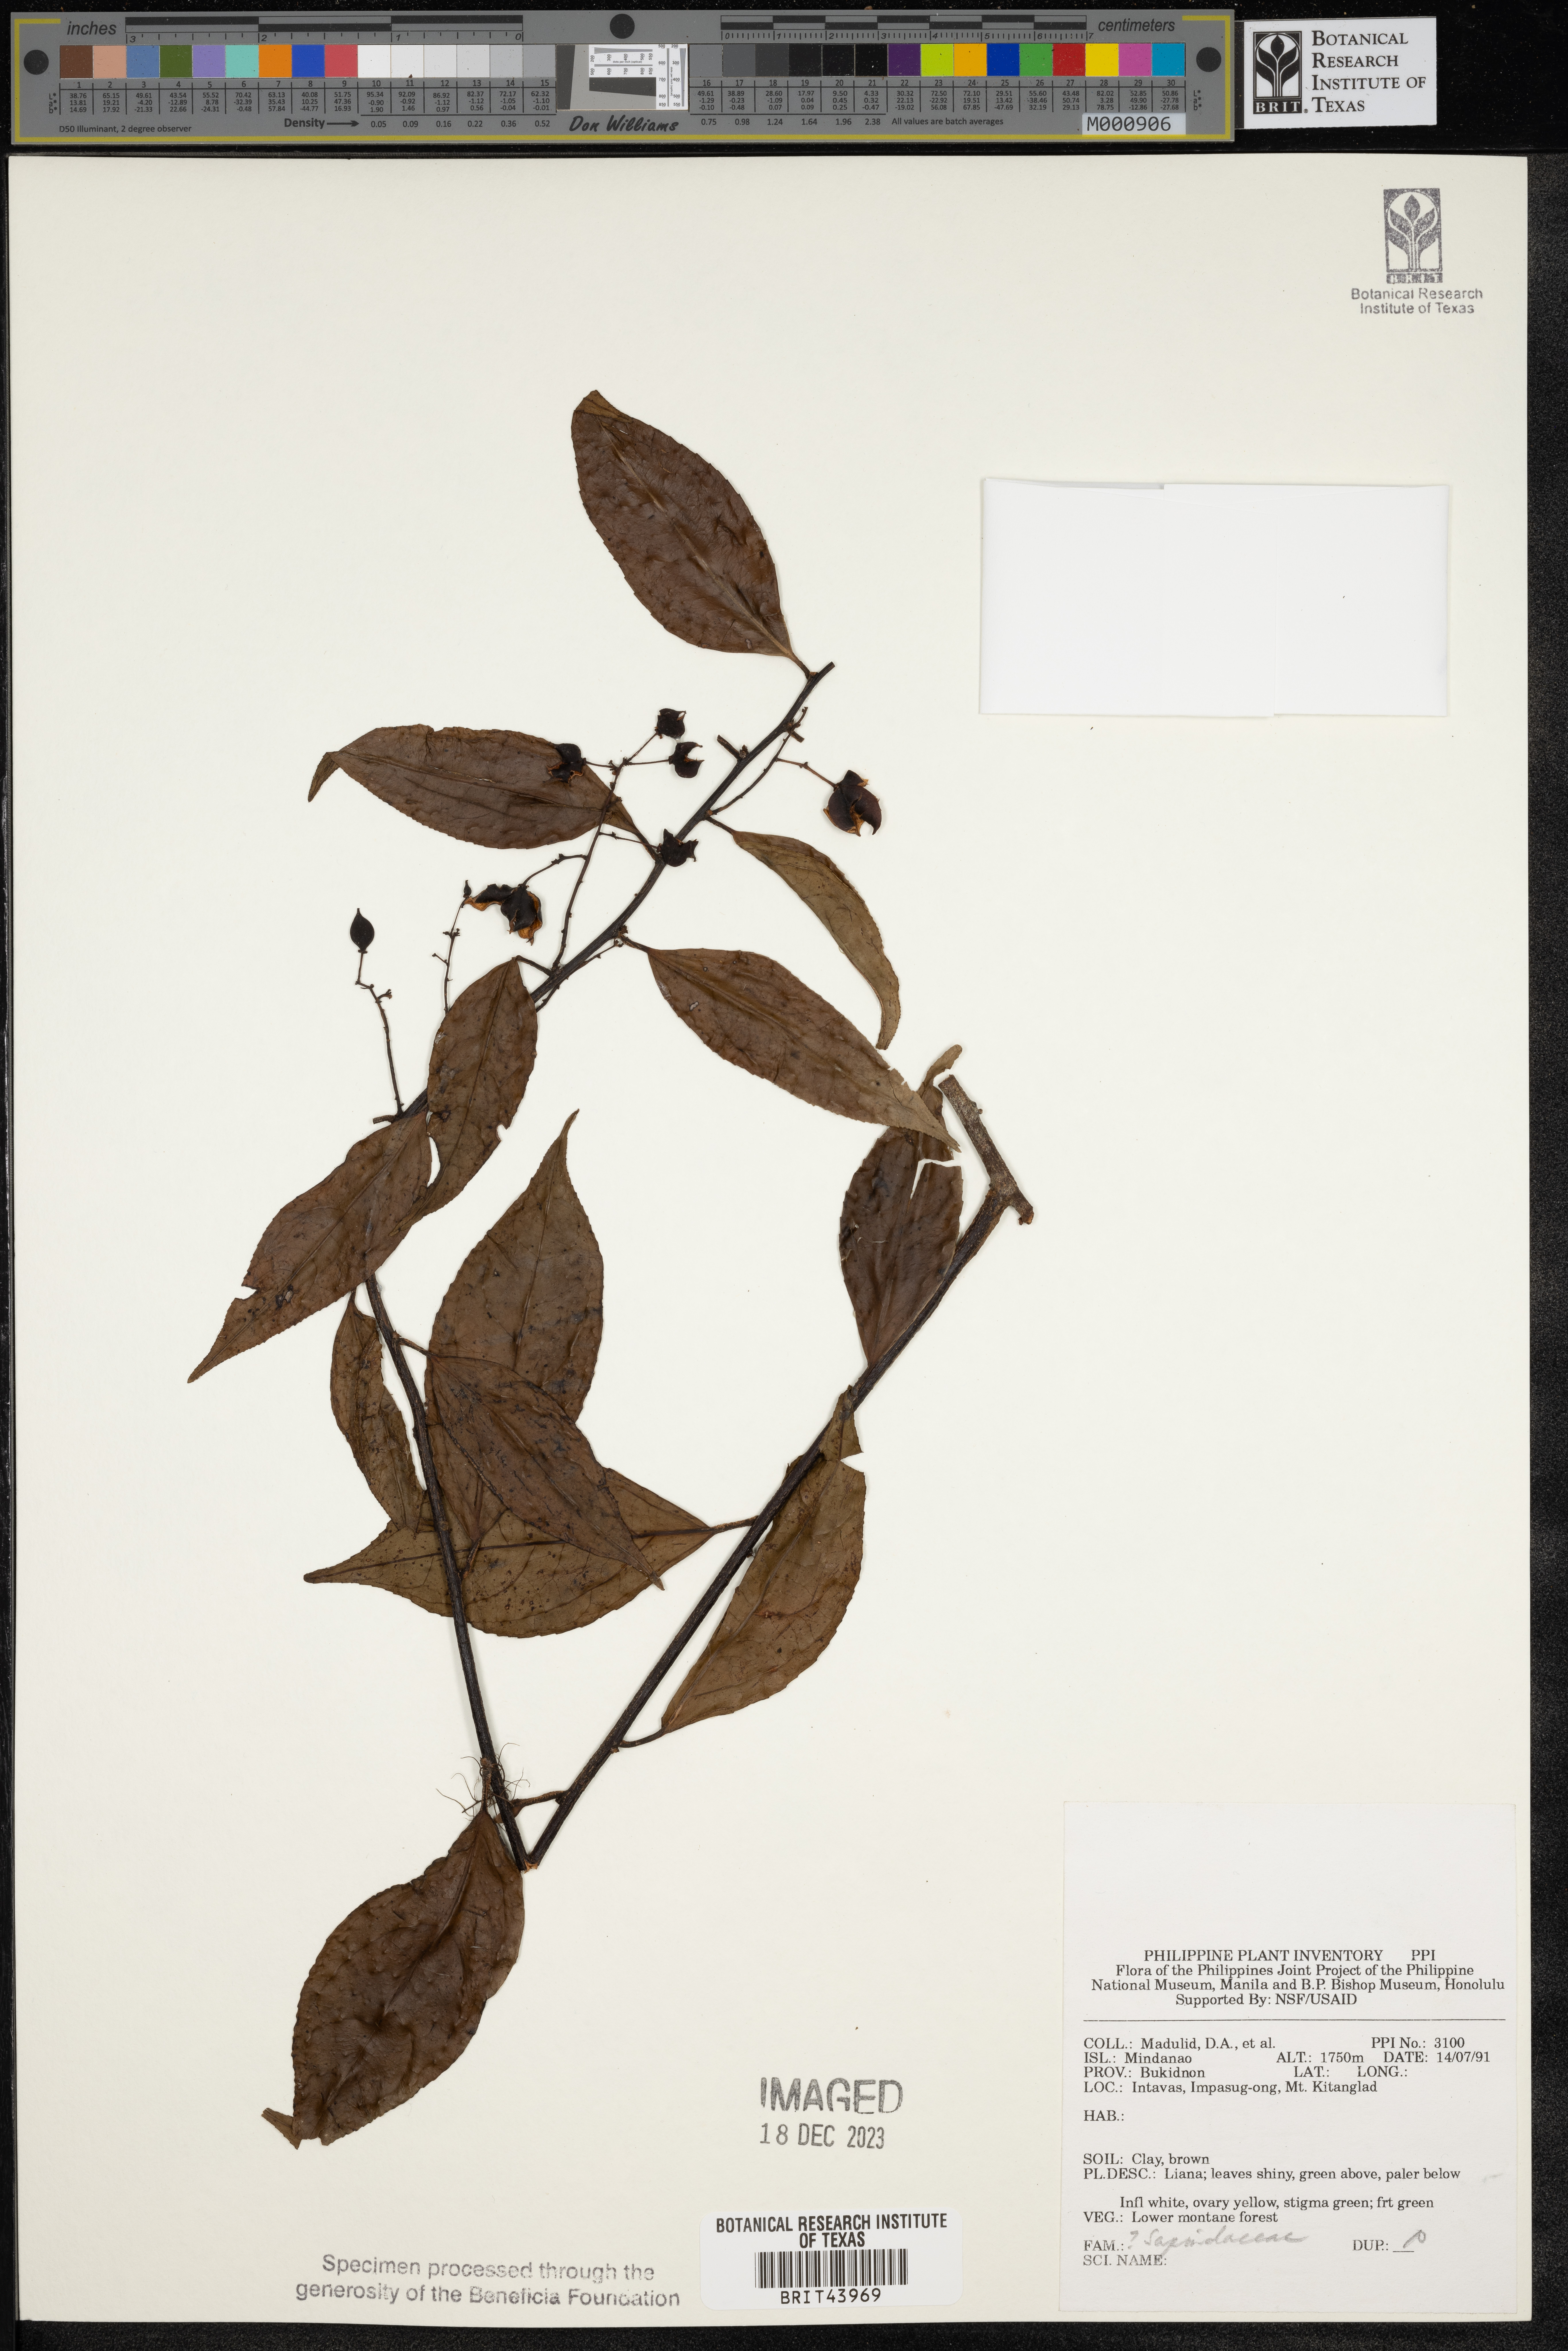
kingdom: Plantae
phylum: Tracheophyta
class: Magnoliopsida
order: Saxifragales
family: Crassulaceae
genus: Sedum
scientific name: Sedum villosum
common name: Hairy stonecrop
